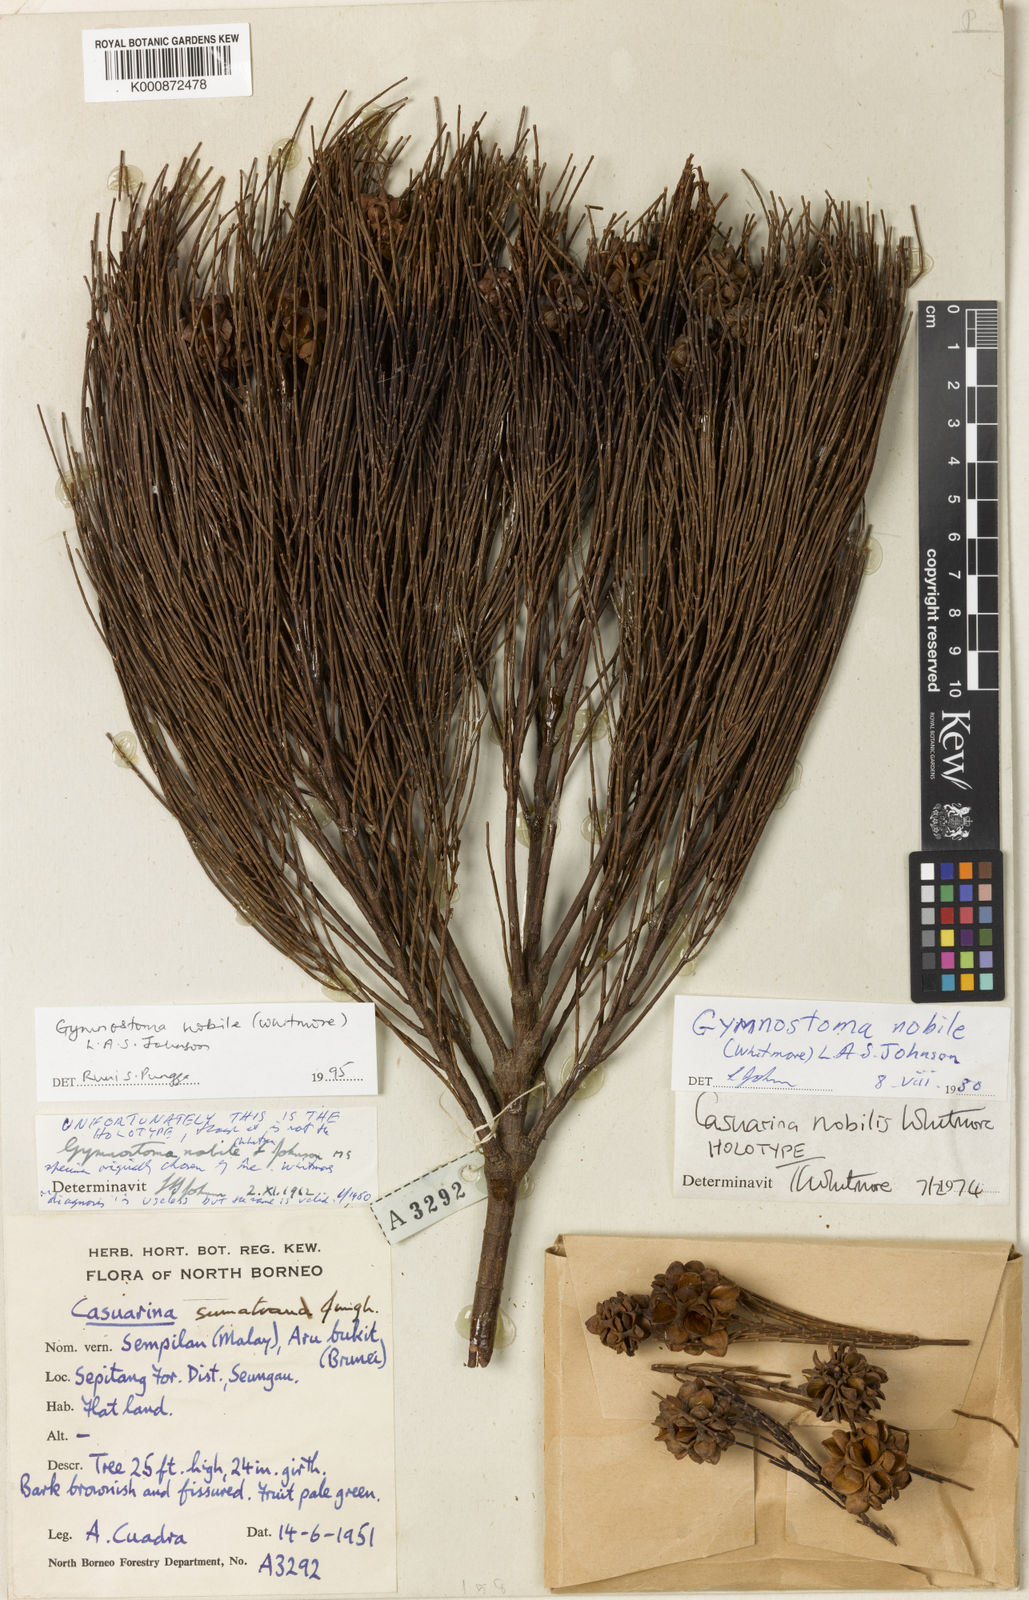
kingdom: Plantae
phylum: Tracheophyta
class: Magnoliopsida
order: Fagales
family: Casuarinaceae
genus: Gymnostoma
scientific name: Gymnostoma nobile
